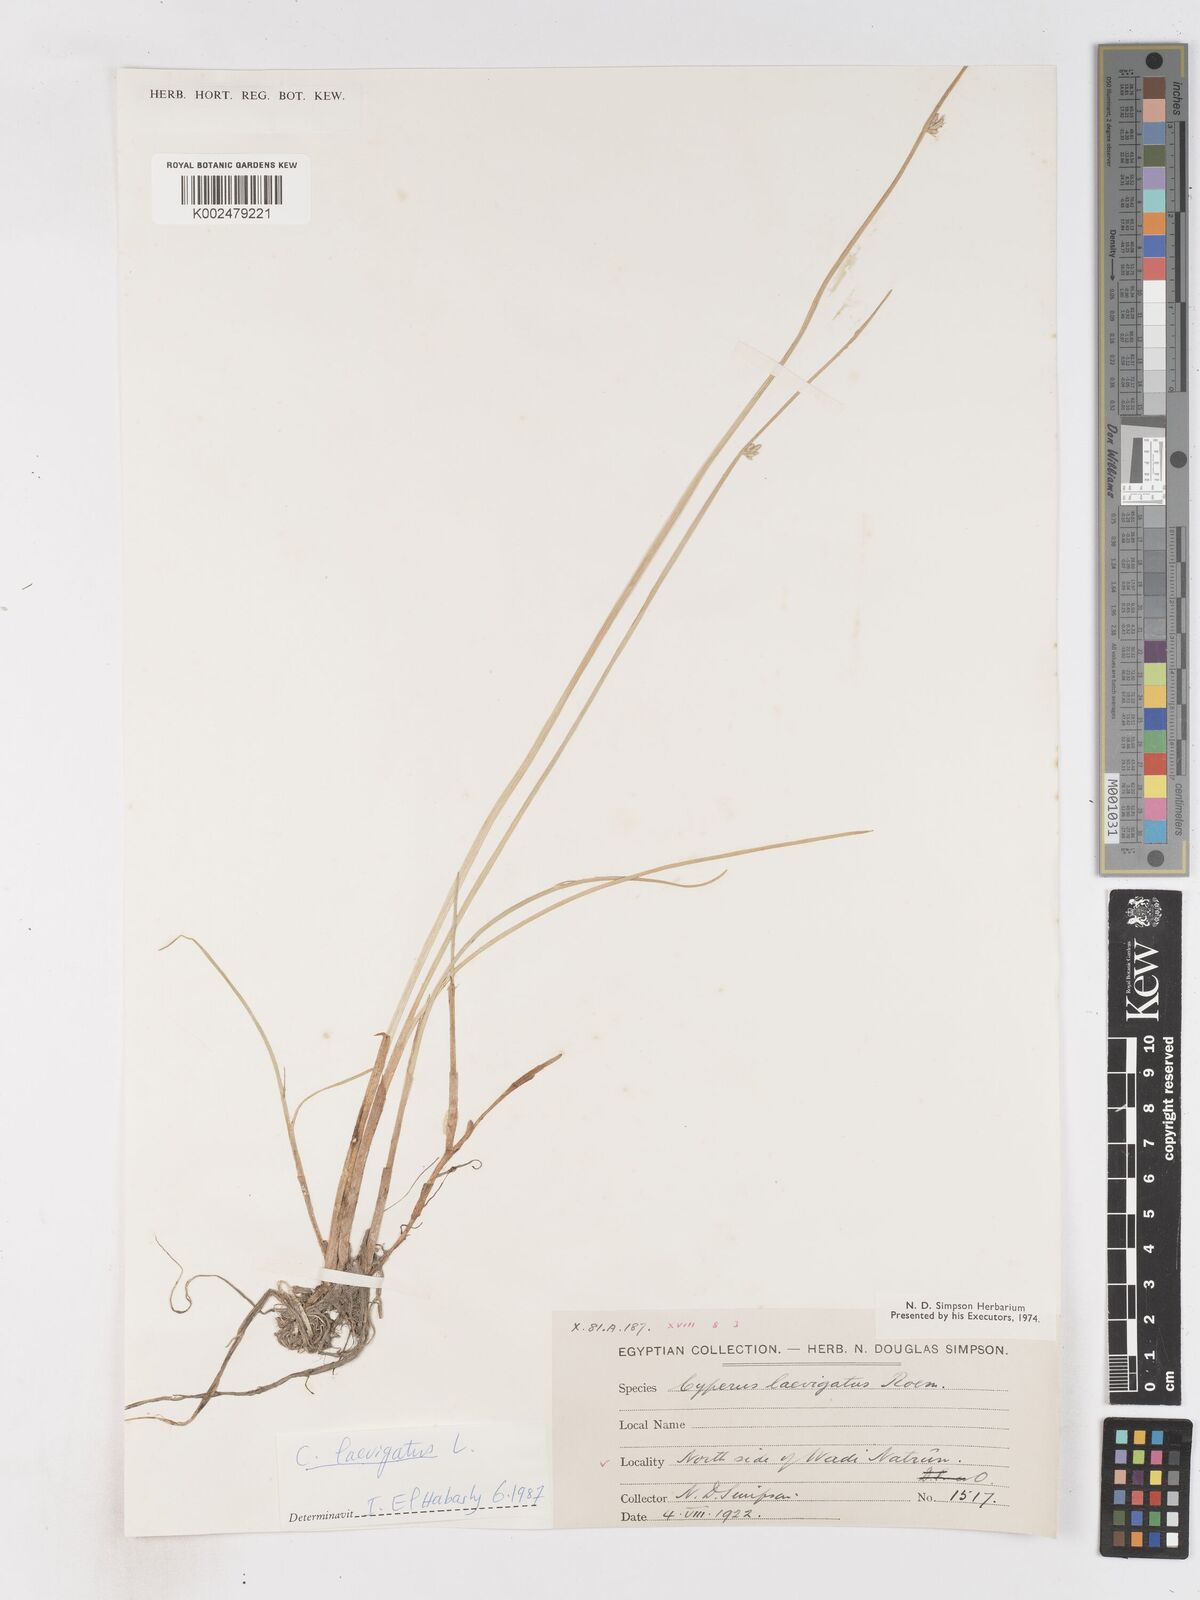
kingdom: Plantae
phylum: Tracheophyta
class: Liliopsida
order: Poales
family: Cyperaceae
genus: Cyperus
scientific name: Cyperus laevigatus
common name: Smooth flat sedge
